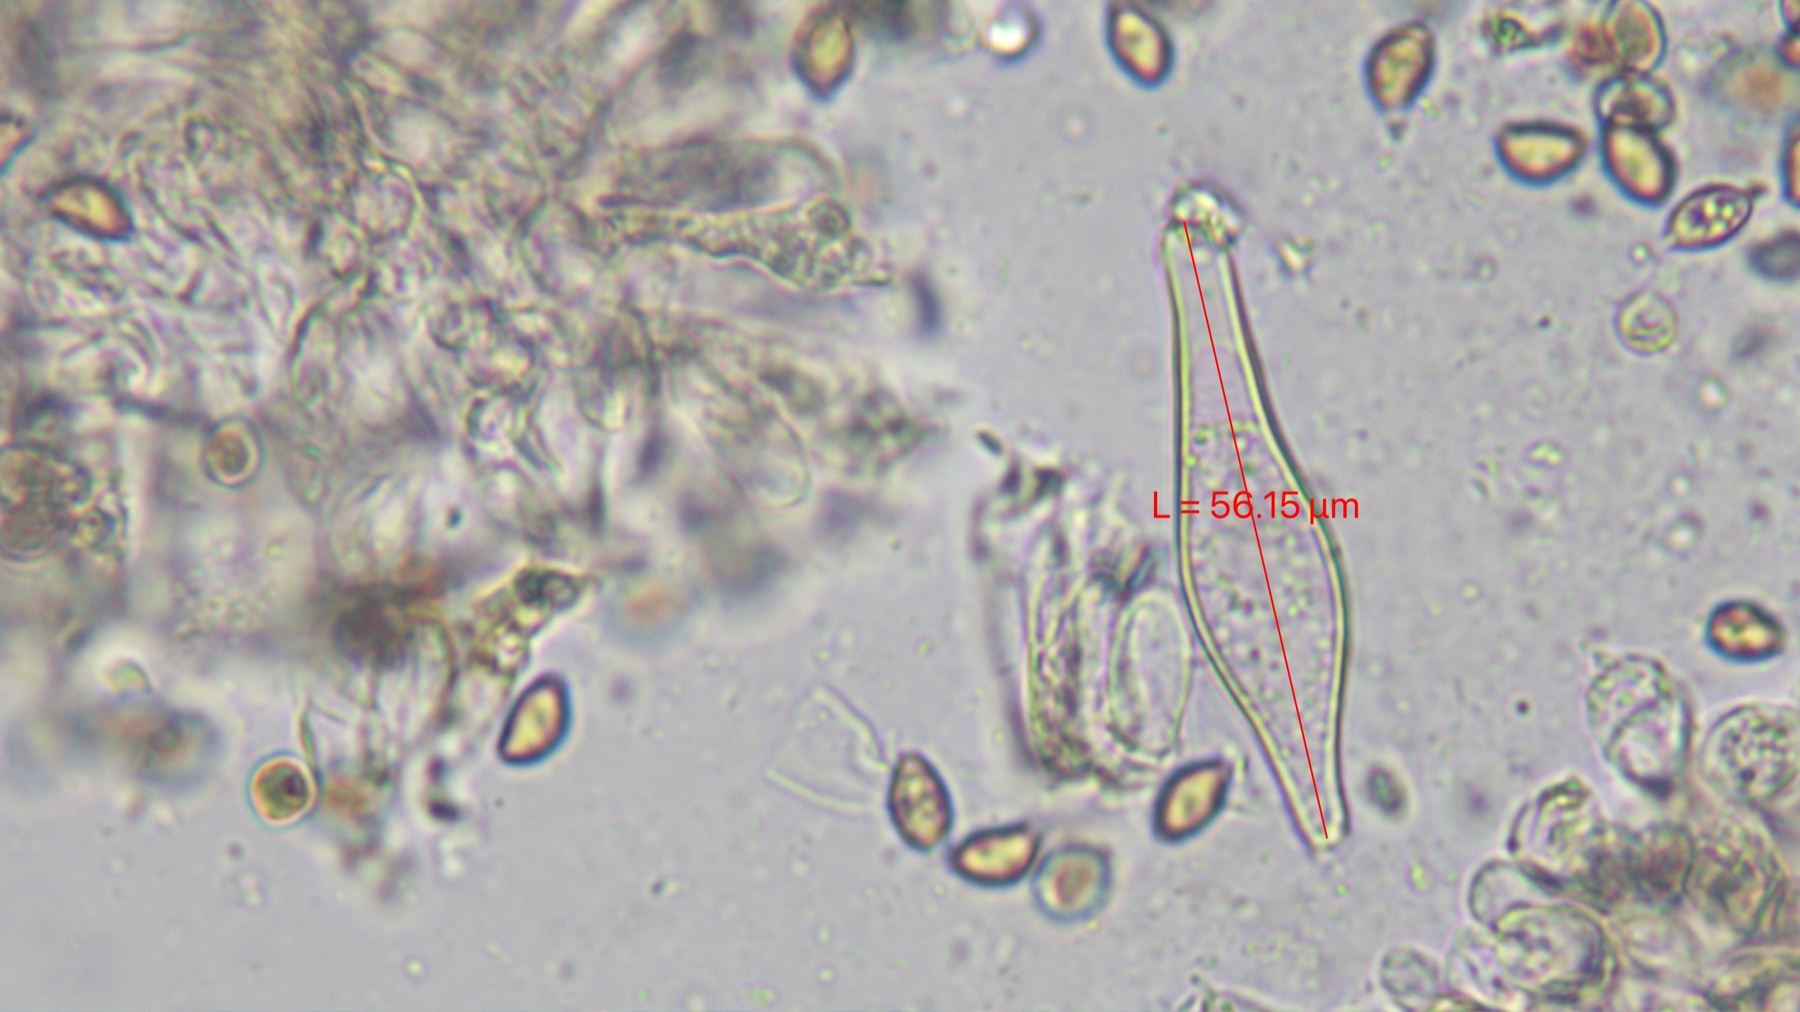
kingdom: Fungi
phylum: Basidiomycota
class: Agaricomycetes
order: Agaricales
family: Inocybaceae
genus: Inocybe
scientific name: Inocybe cincinnata
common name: lillabladet trævlhat
